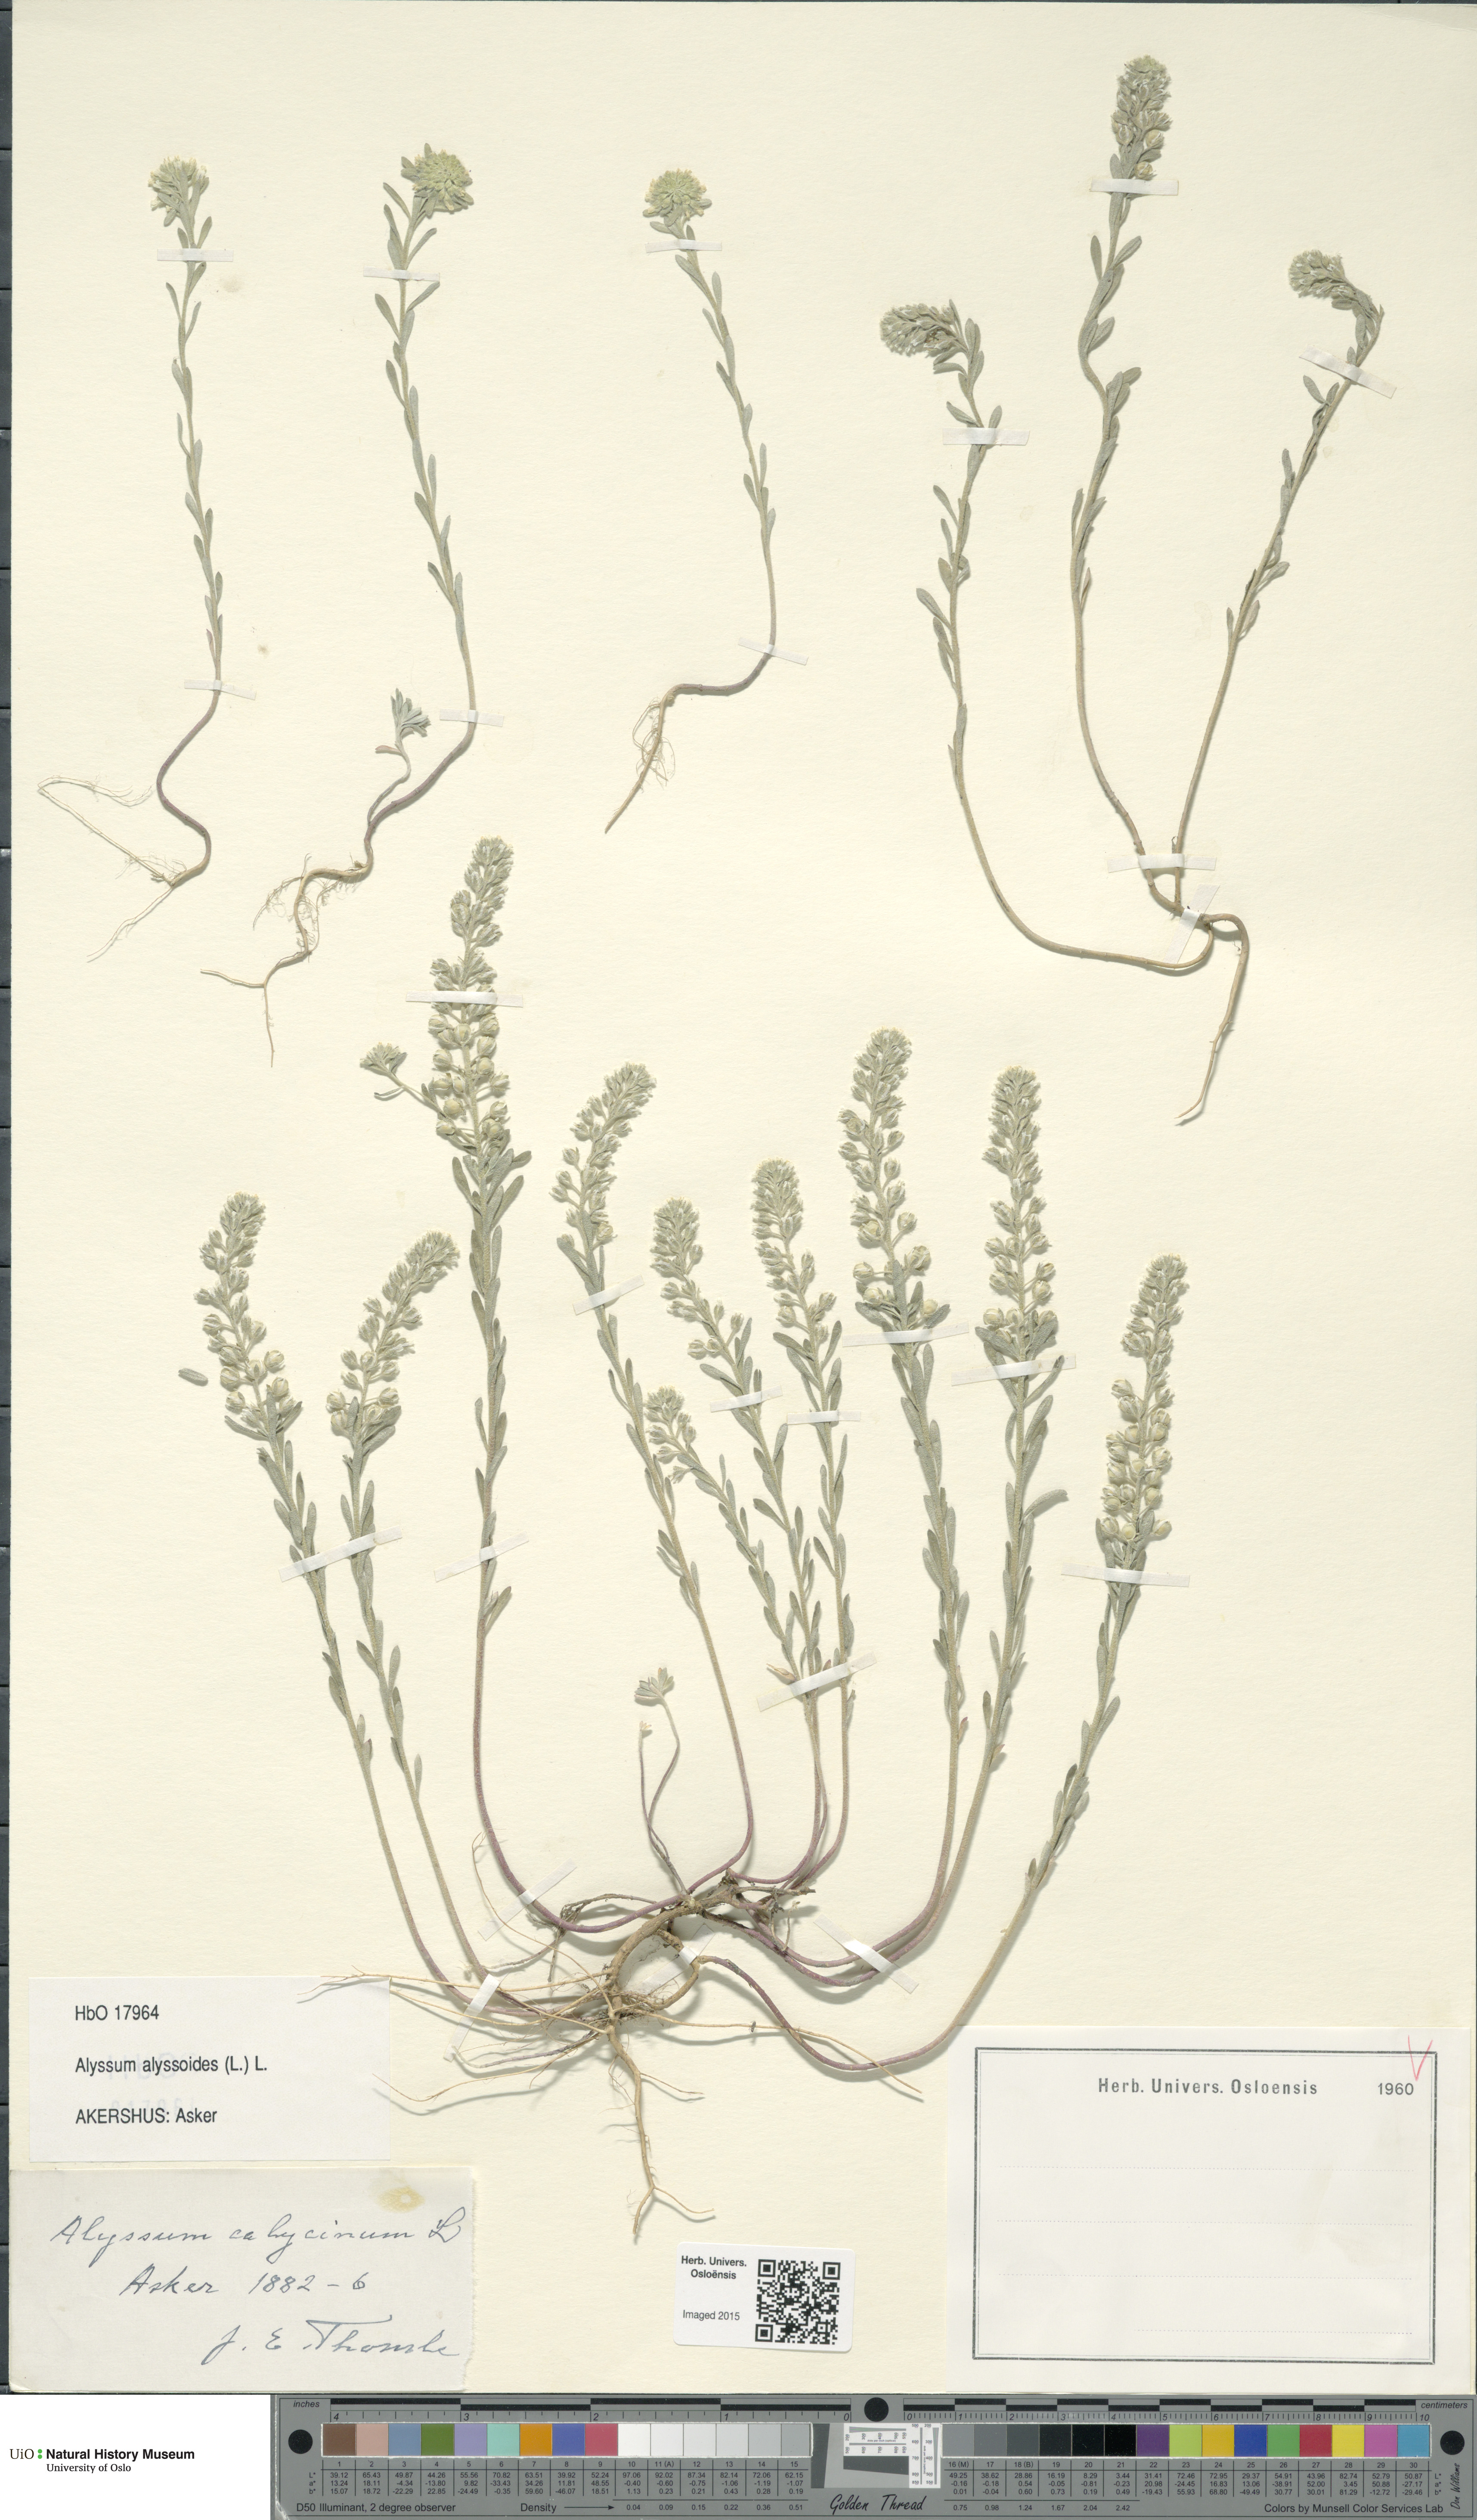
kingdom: Plantae
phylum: Tracheophyta
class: Magnoliopsida
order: Brassicales
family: Brassicaceae
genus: Alyssum
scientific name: Alyssum alyssoides
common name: Small alison
